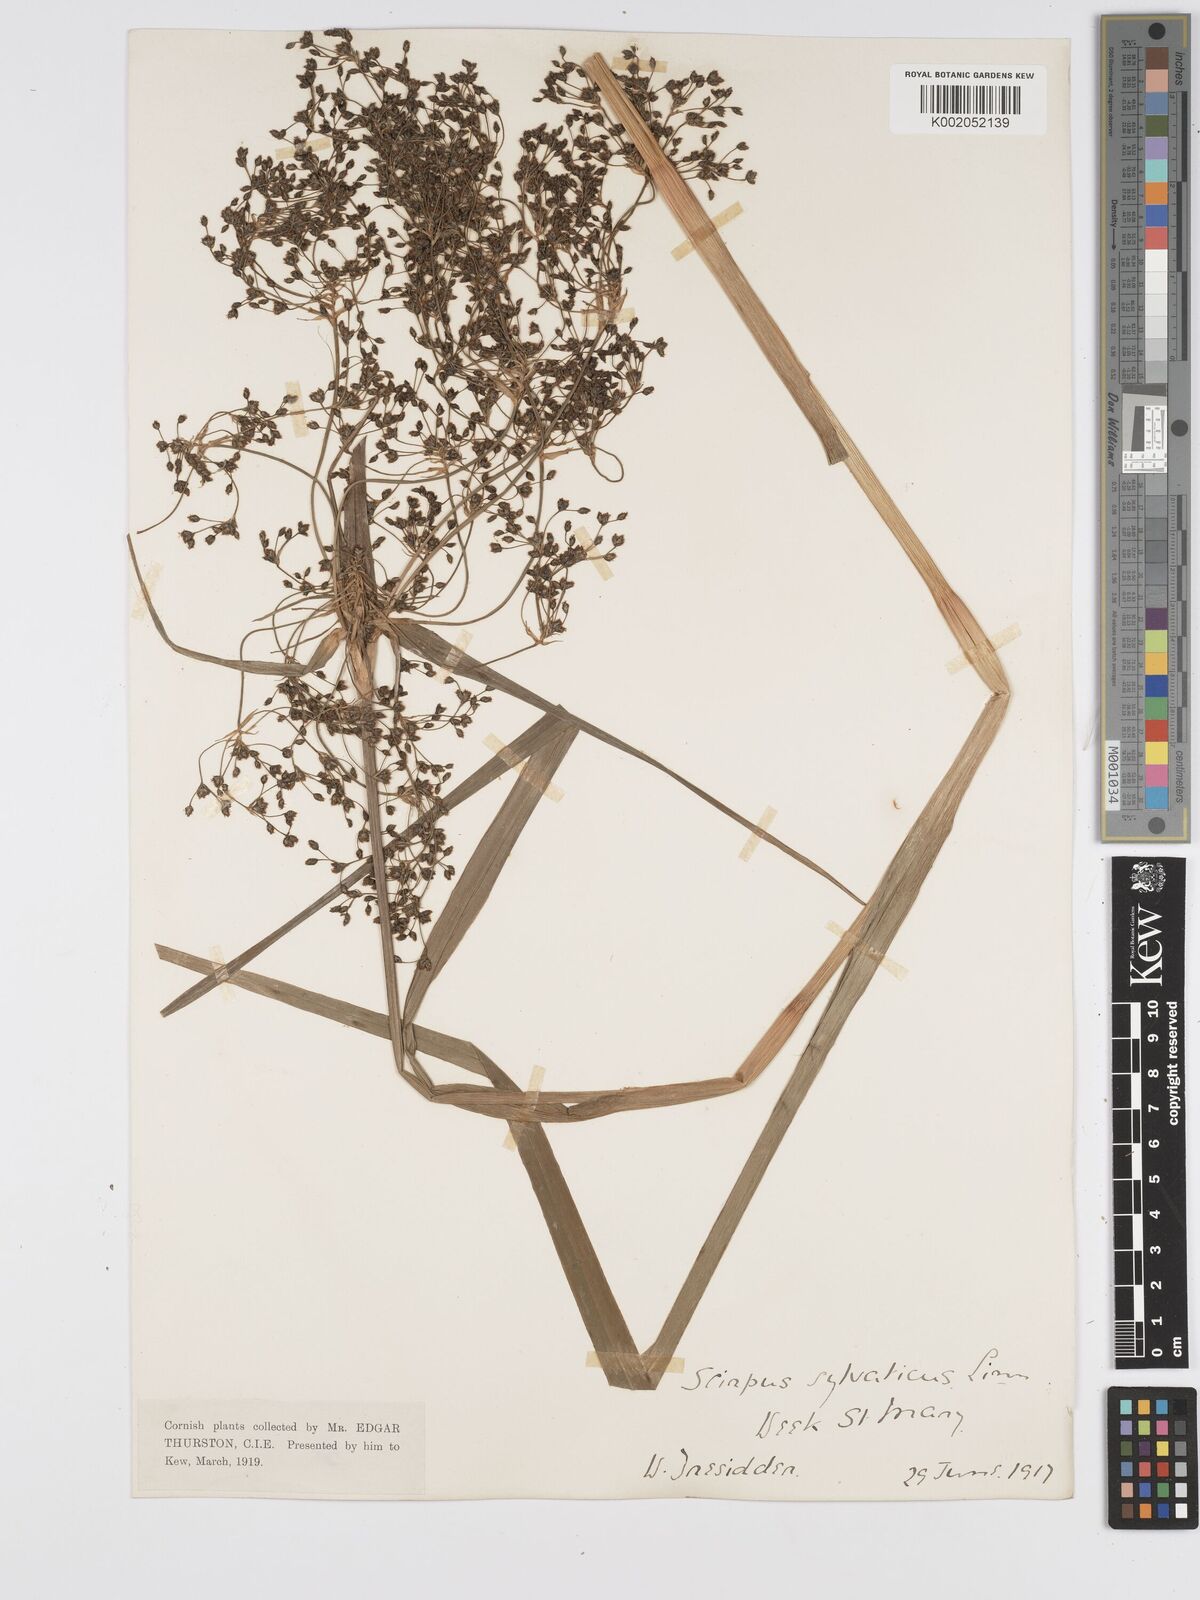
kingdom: Plantae
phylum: Tracheophyta
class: Liliopsida
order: Poales
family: Cyperaceae
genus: Scirpus
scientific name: Scirpus sylvaticus
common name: Wood club-rush
